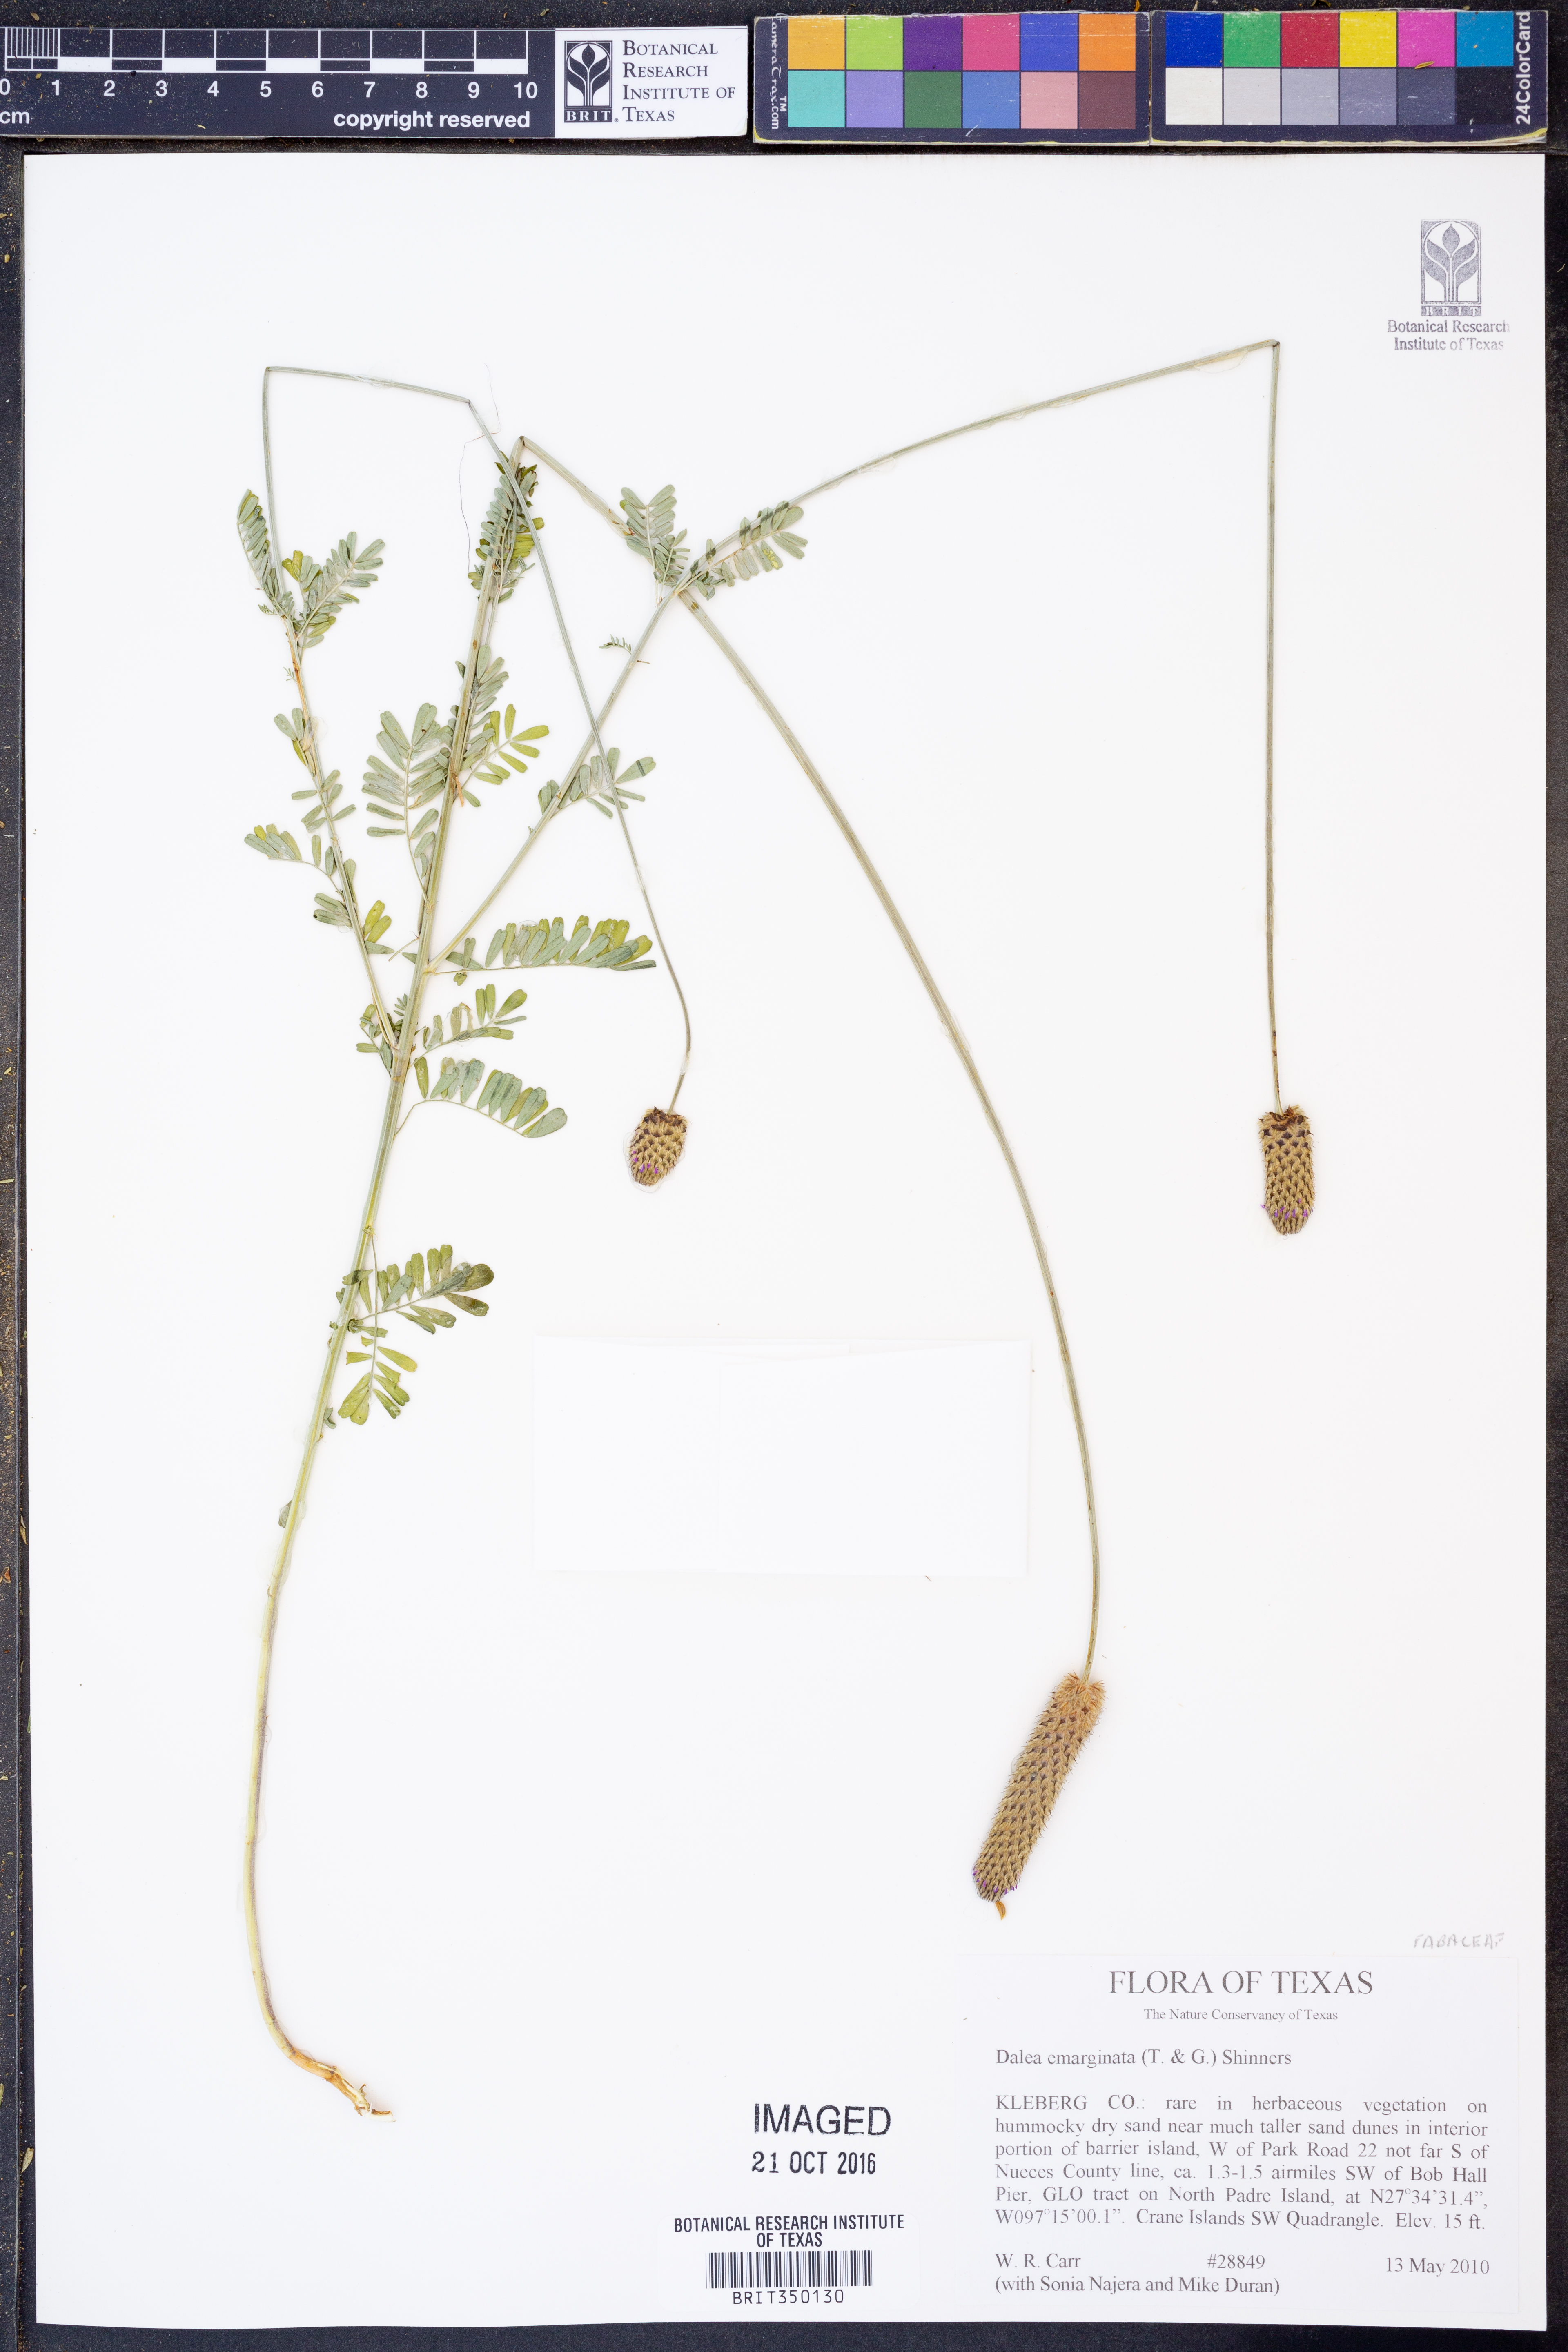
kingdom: Plantae
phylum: Tracheophyta
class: Magnoliopsida
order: Fabales
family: Fabaceae
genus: Dalea
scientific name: Dalea emarginata
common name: Wedgeleaf prairie clover
